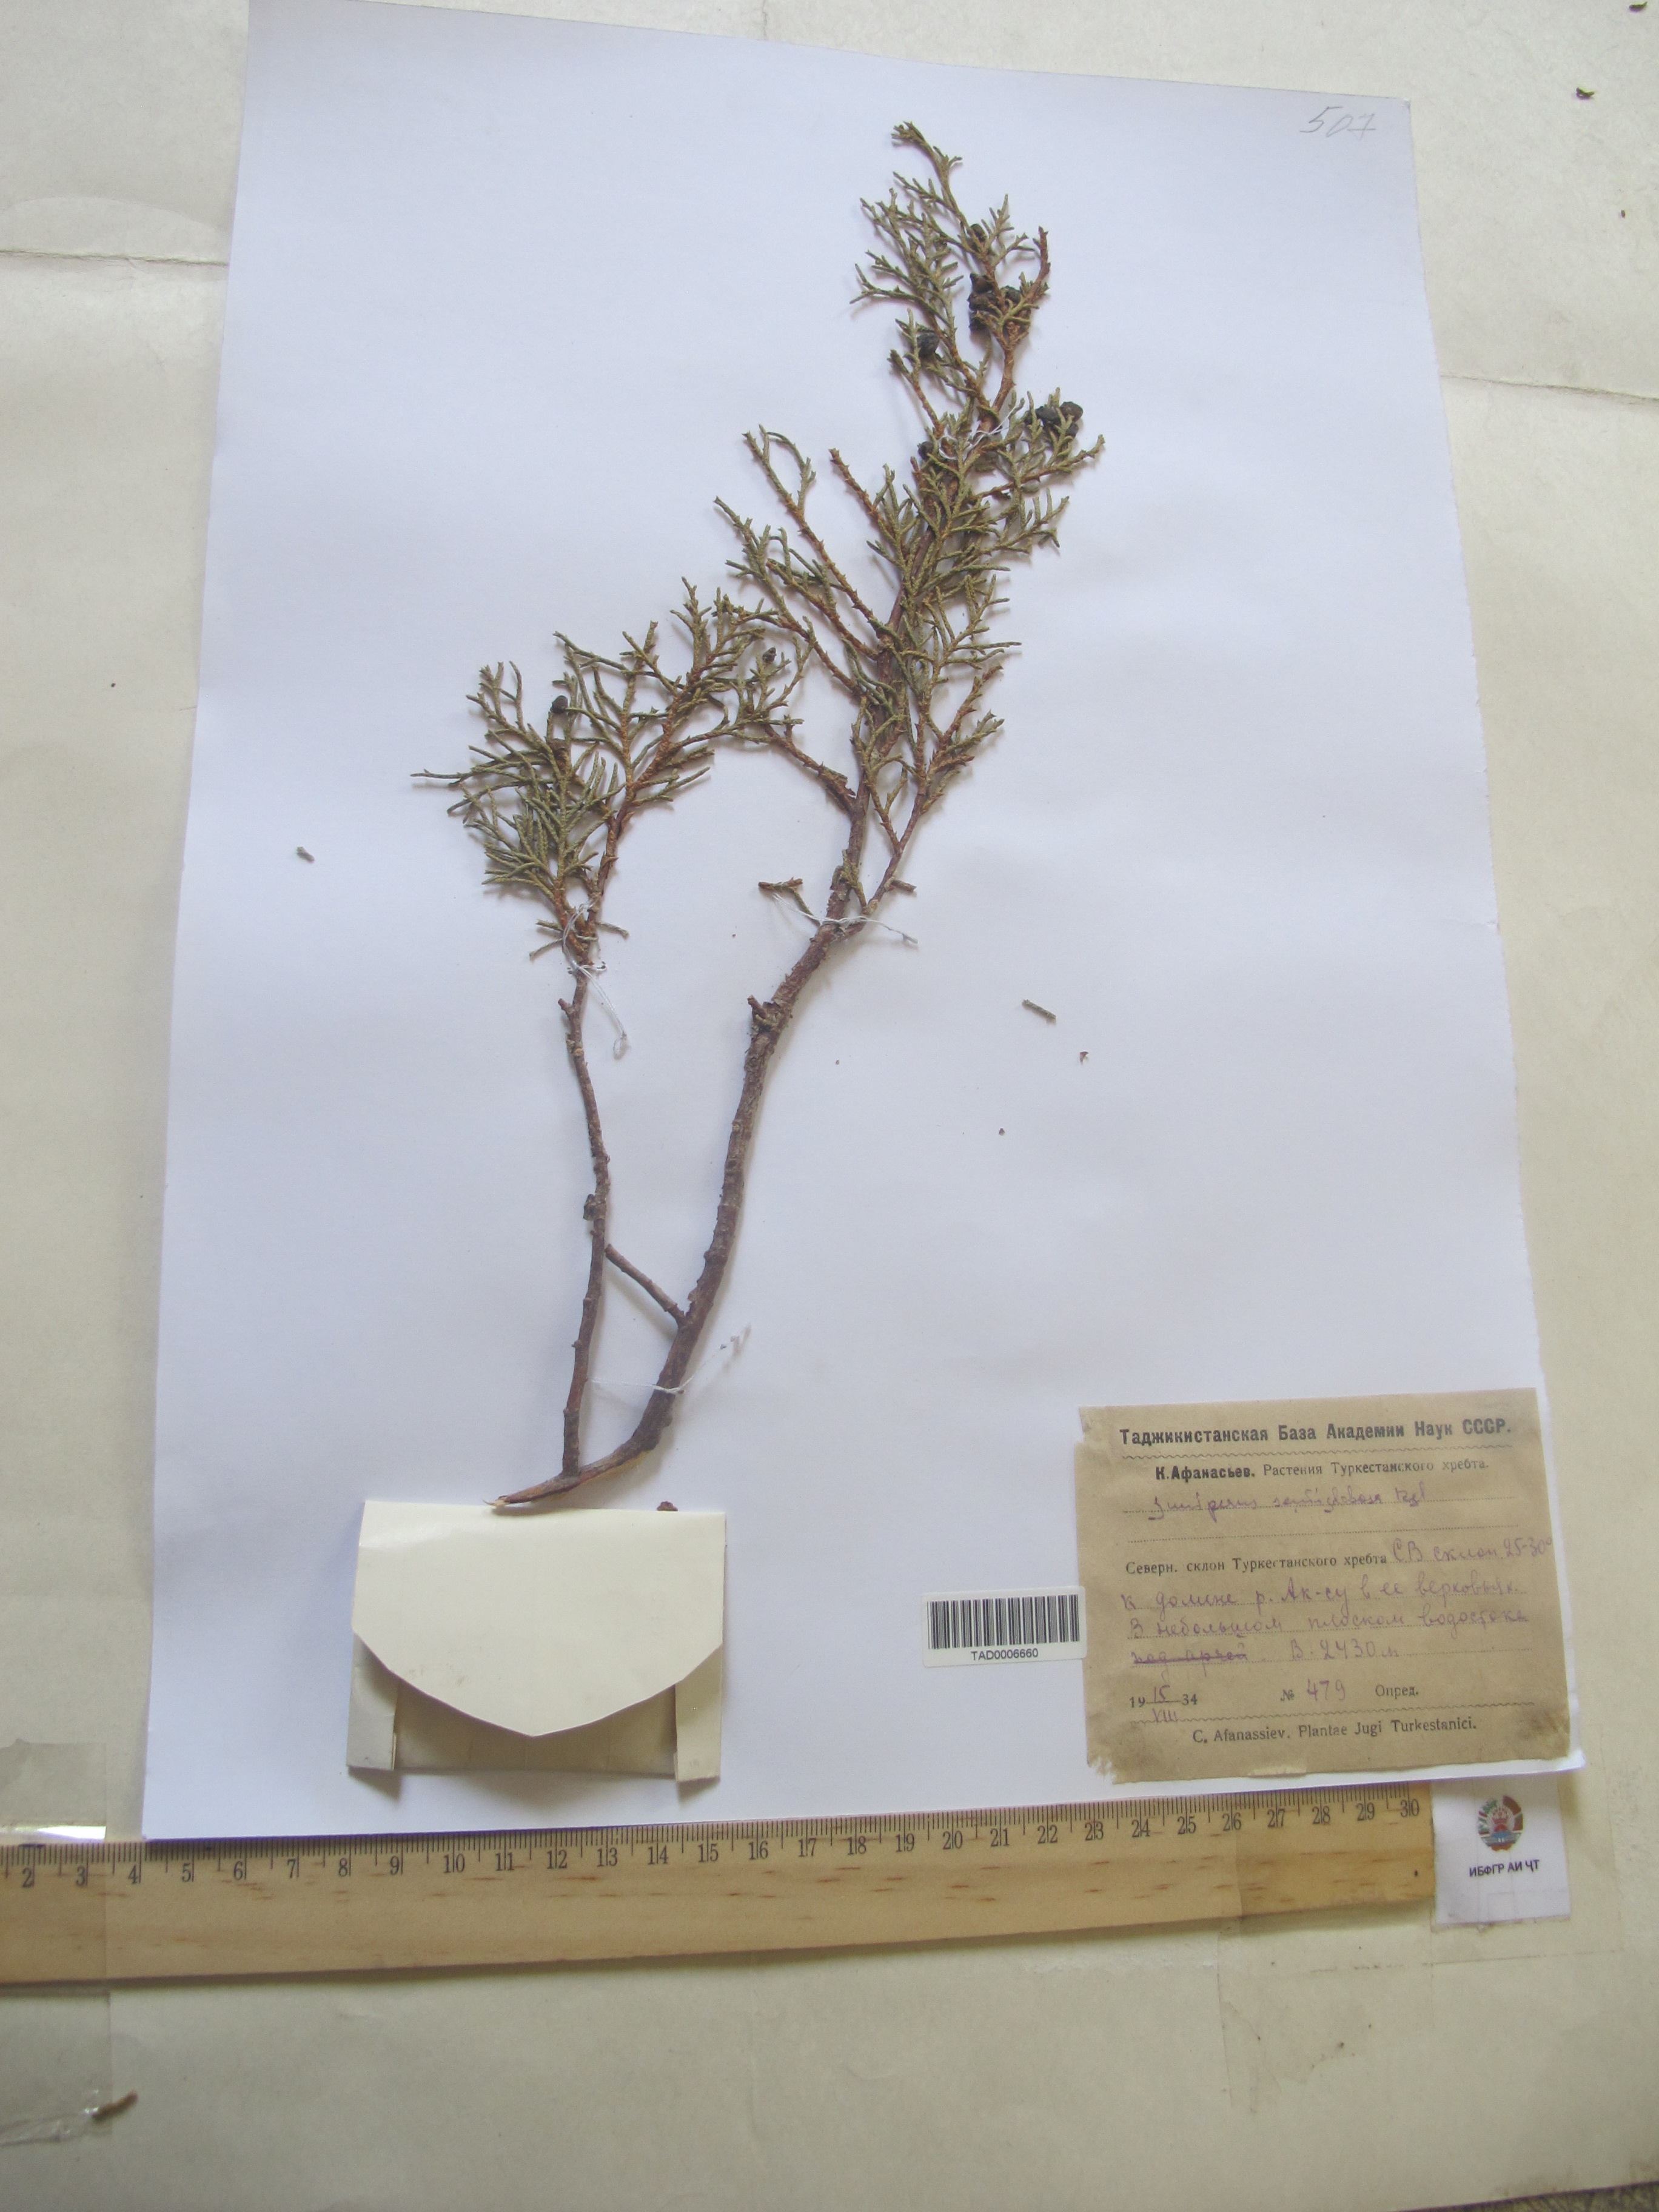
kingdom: Plantae
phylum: Tracheophyta
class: Pinopsida
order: Pinales
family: Cupressaceae
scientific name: Cupressaceae
